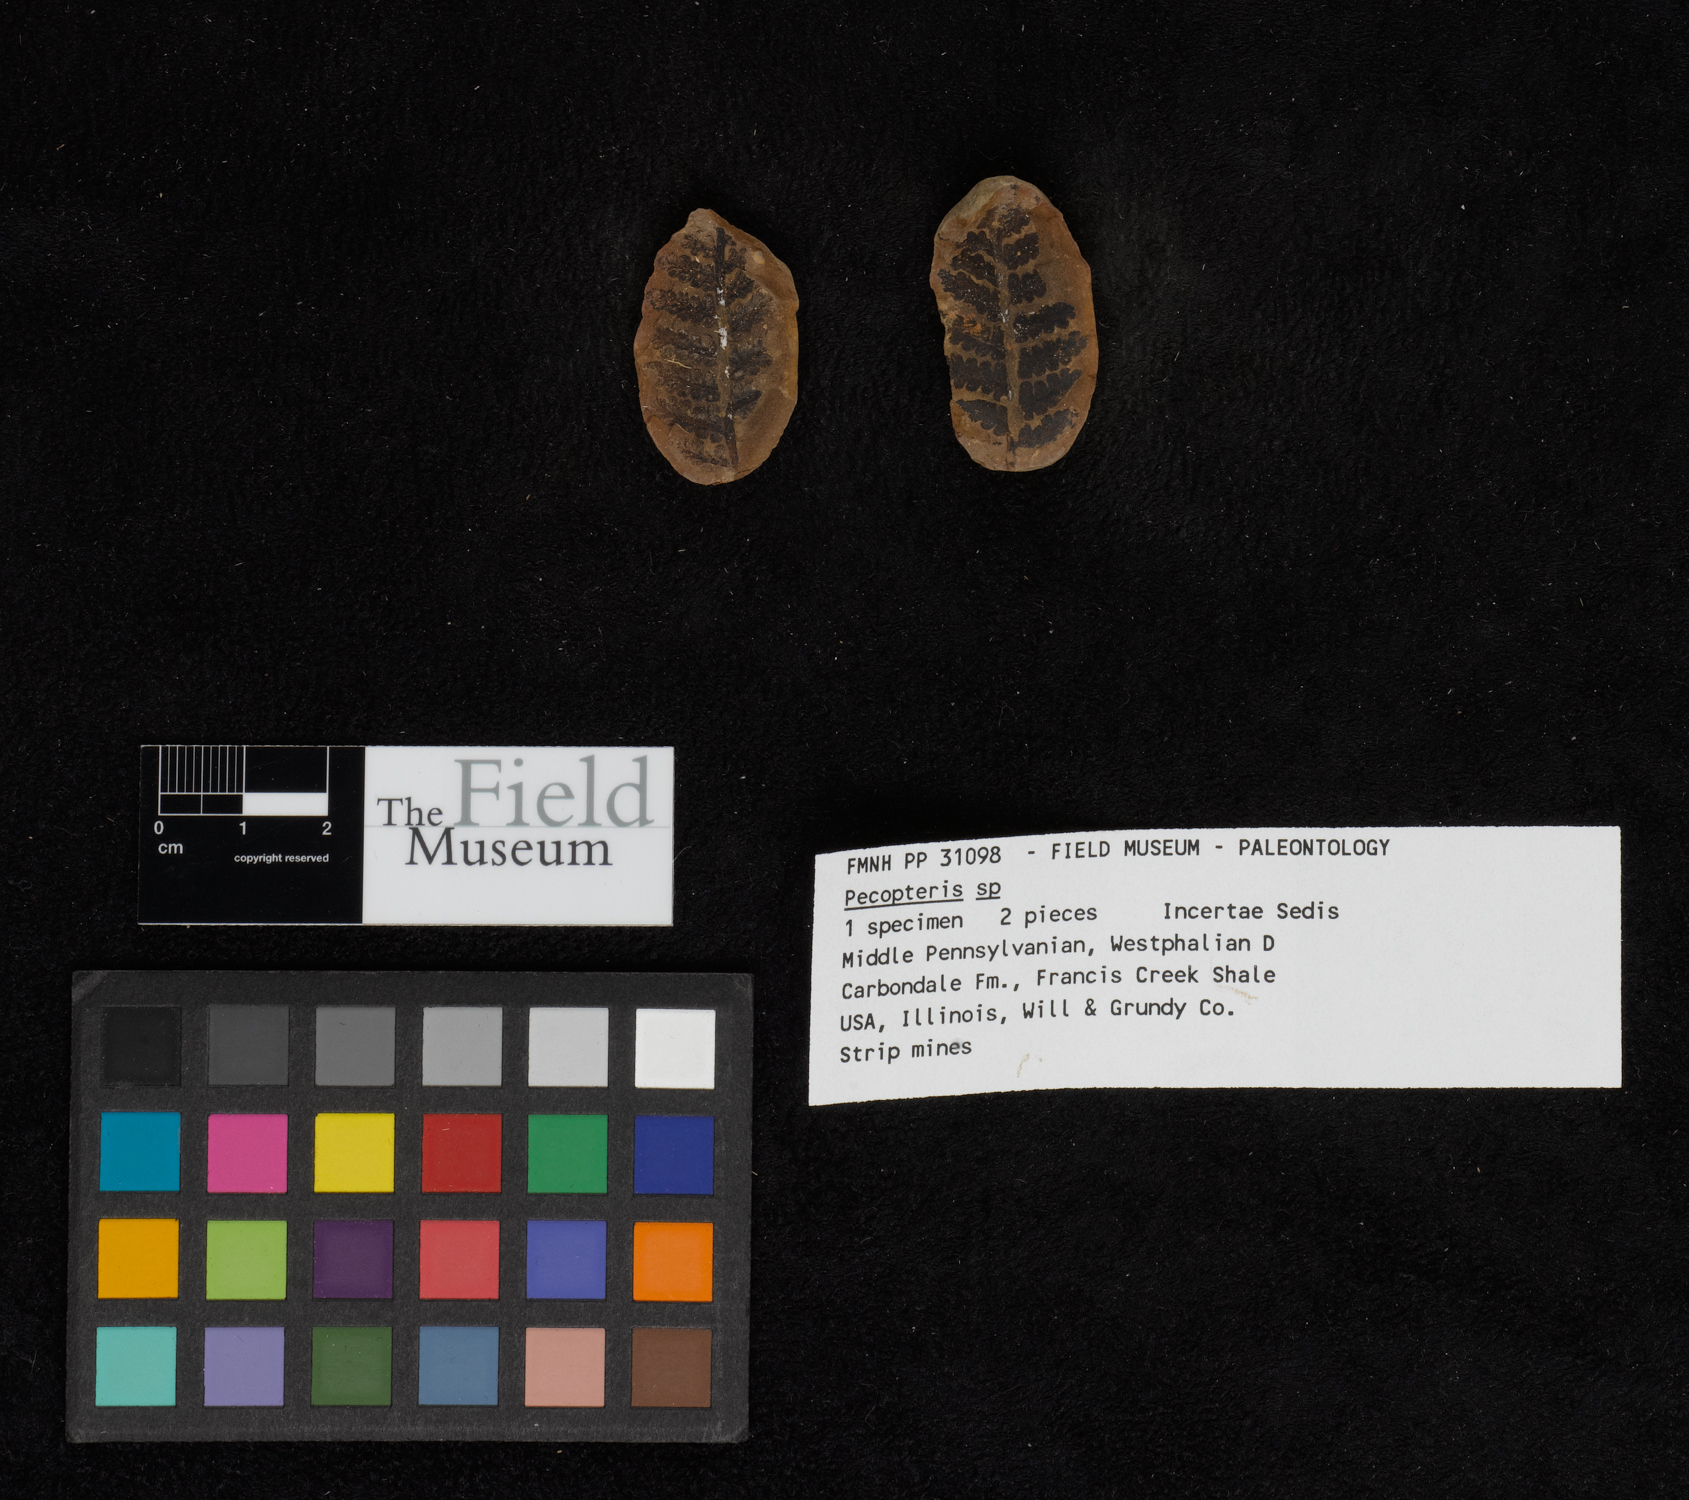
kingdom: Plantae
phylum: Tracheophyta
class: Polypodiopsida
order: Marattiales
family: Asterothecaceae
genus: Pecopteris
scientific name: Pecopteris
